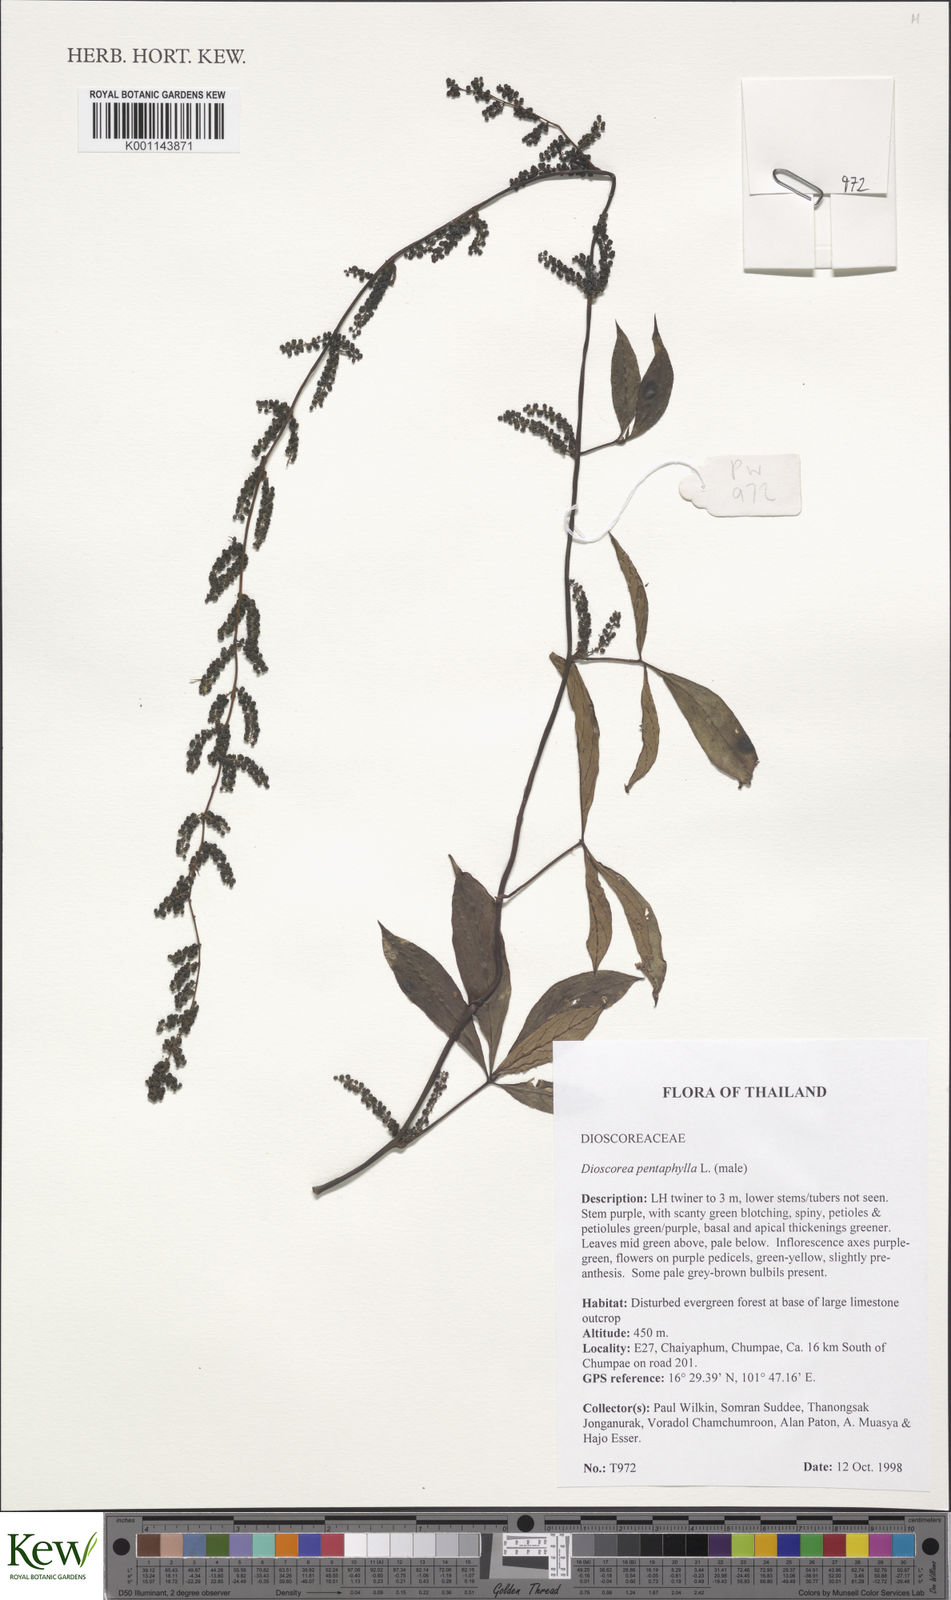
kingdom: Plantae
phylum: Tracheophyta
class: Liliopsida
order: Dioscoreales
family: Dioscoreaceae
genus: Dioscorea
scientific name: Dioscorea pentaphylla
